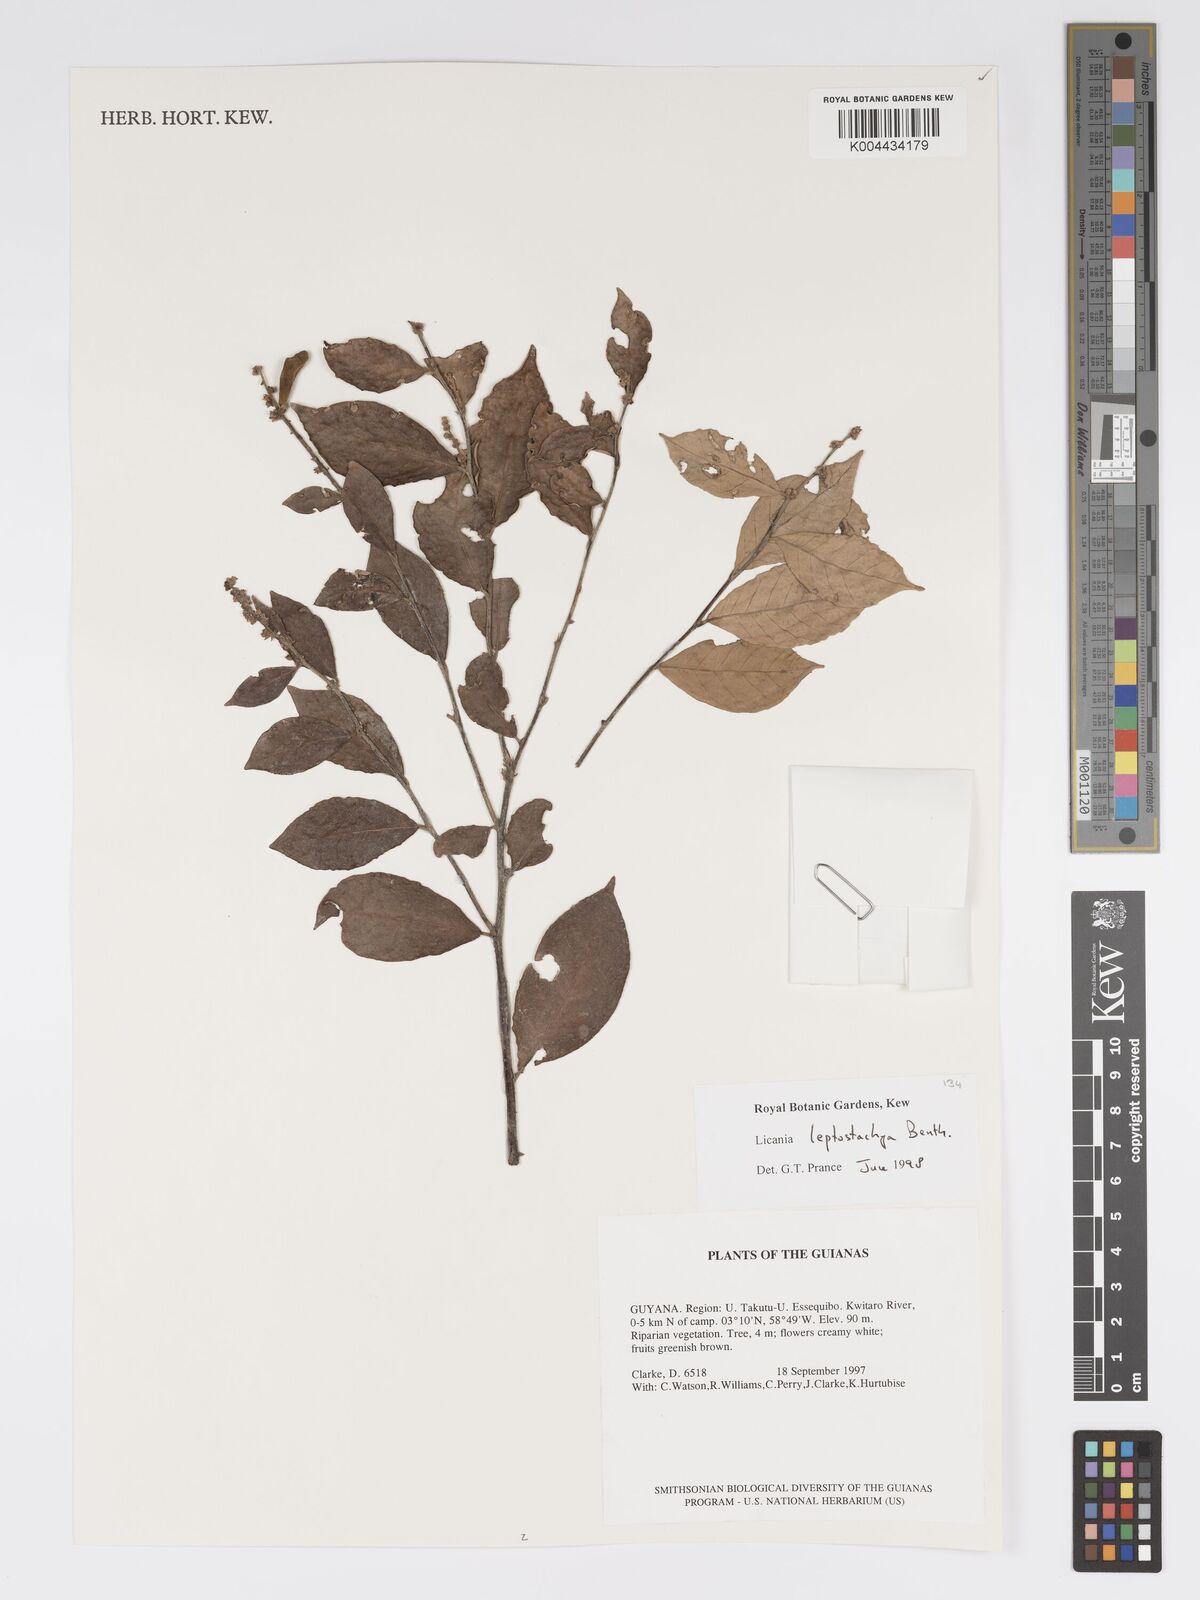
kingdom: Plantae
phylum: Tracheophyta
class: Magnoliopsida
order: Malpighiales
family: Chrysobalanaceae
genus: Licania
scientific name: Licania leptostachya
